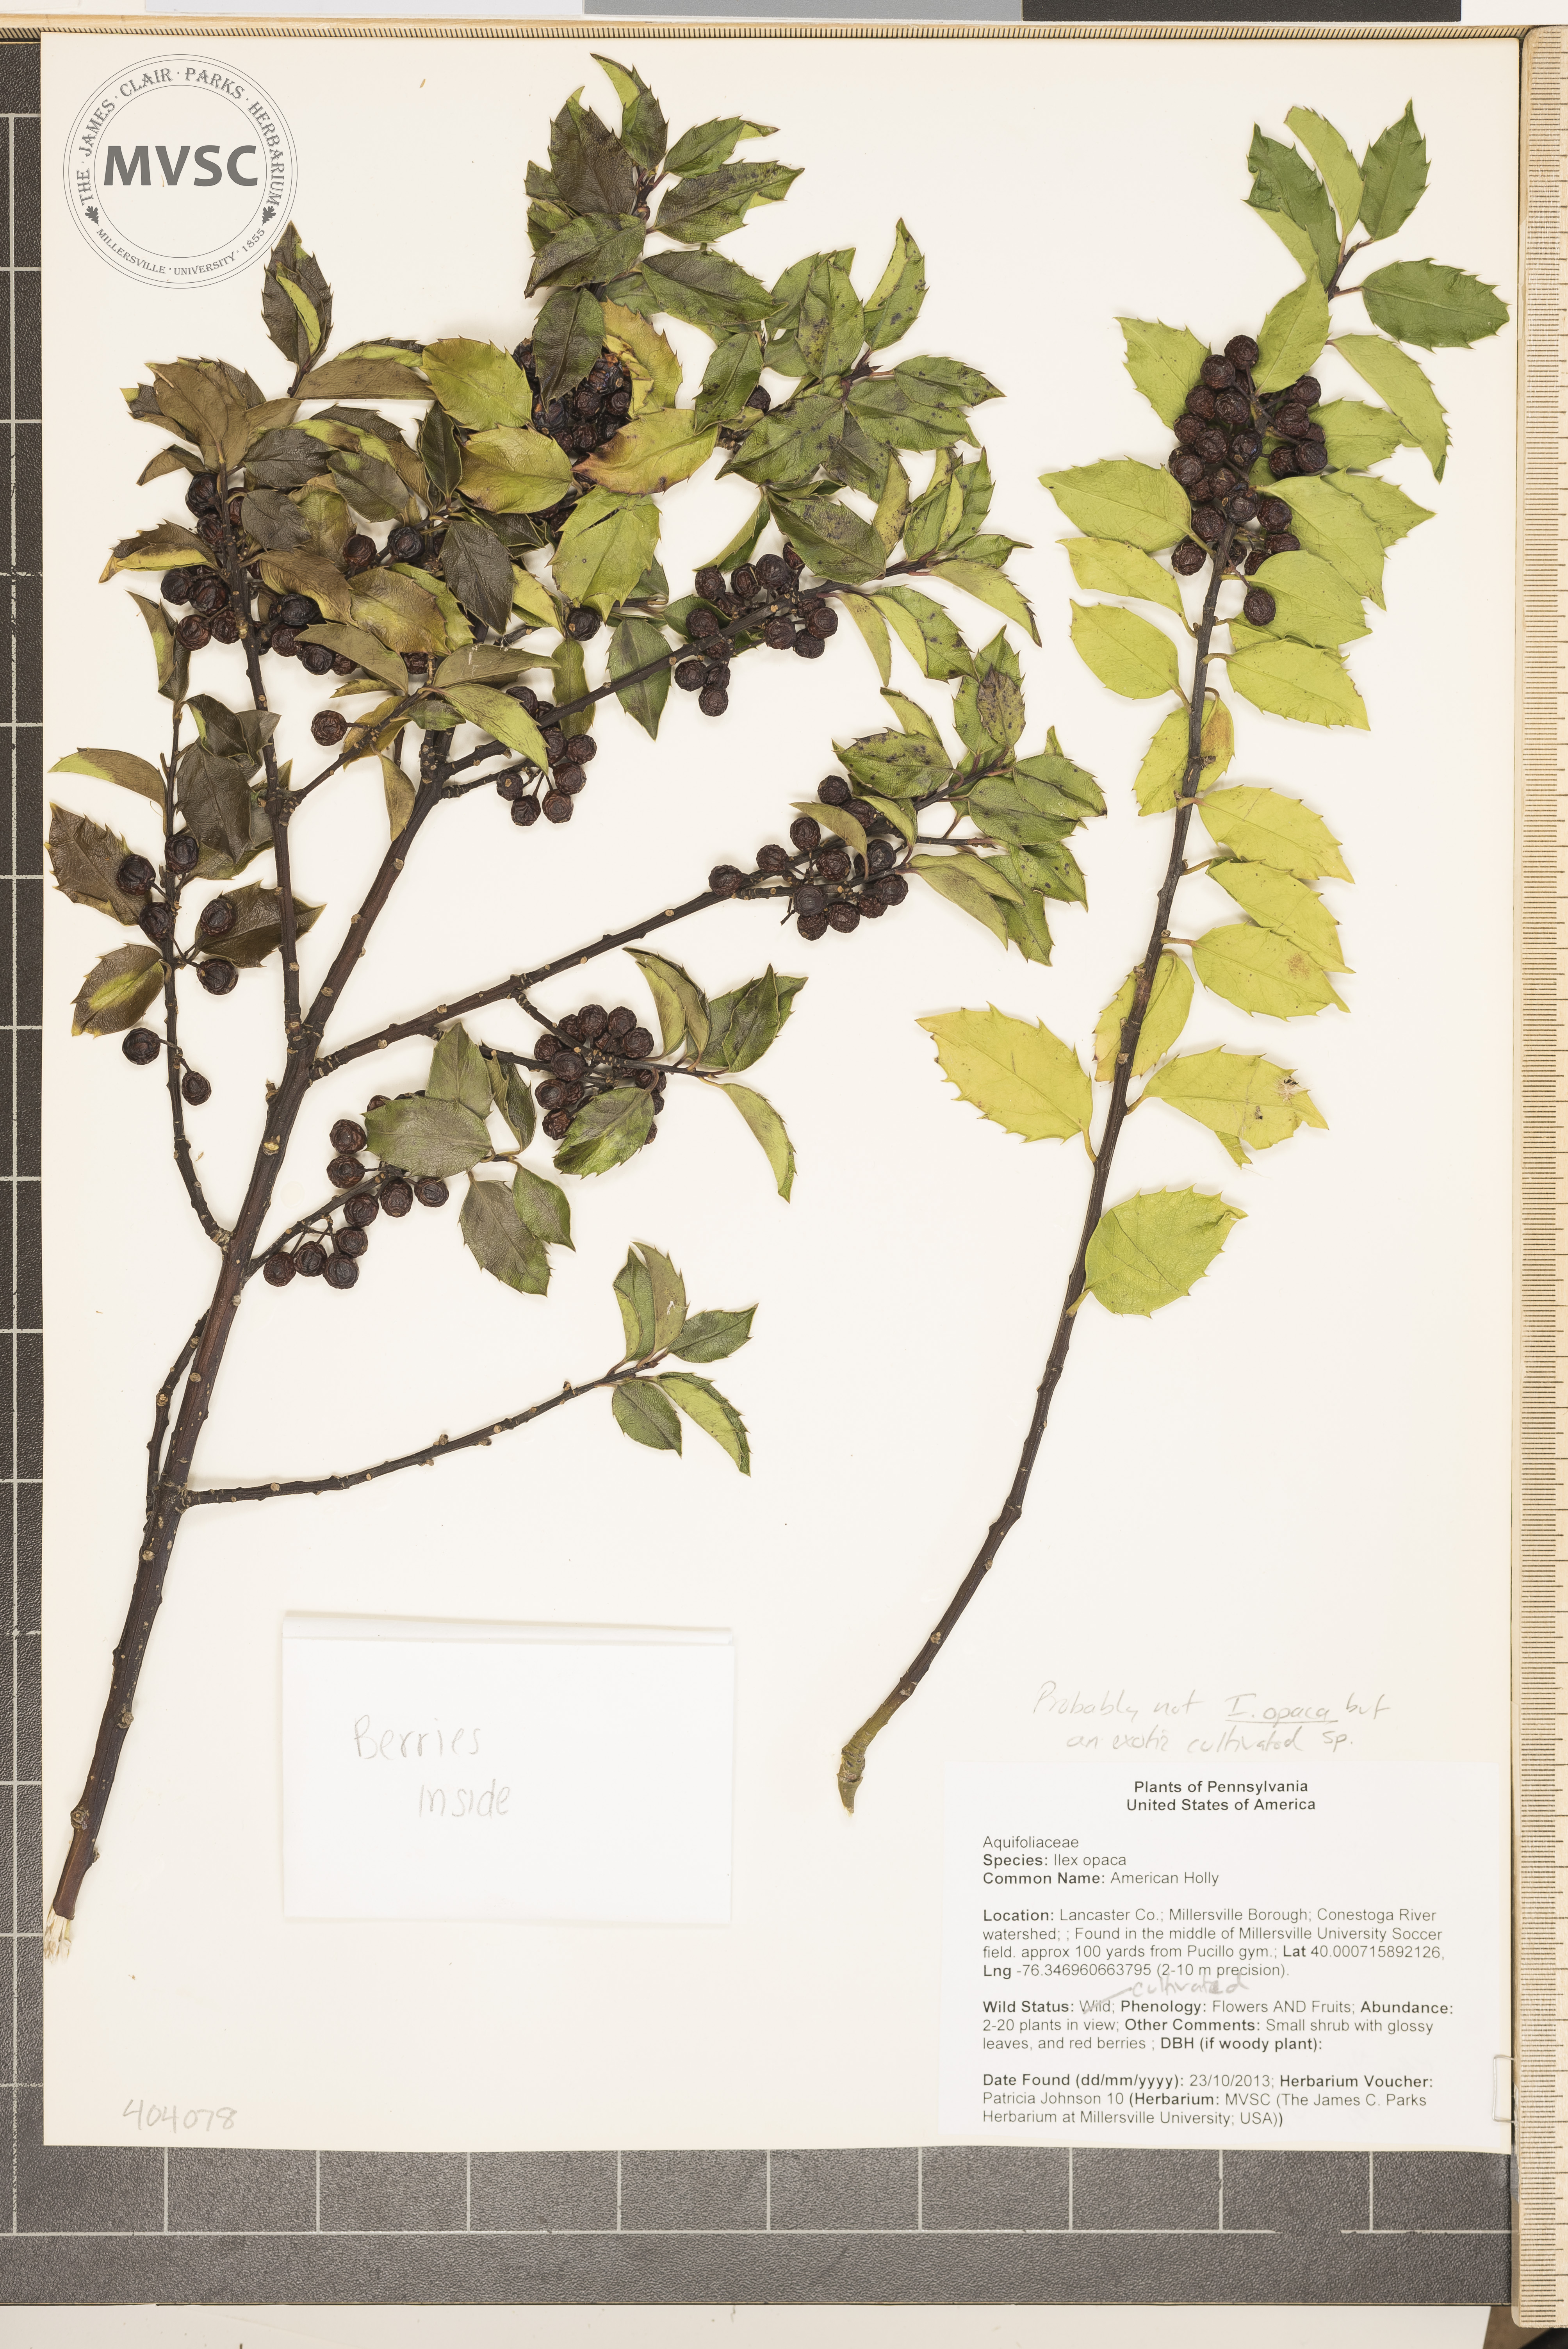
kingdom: Plantae
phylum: Tracheophyta
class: Magnoliopsida
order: Aquifoliales
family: Aquifoliaceae
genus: Ilex
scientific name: Ilex opaca
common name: American Holly
